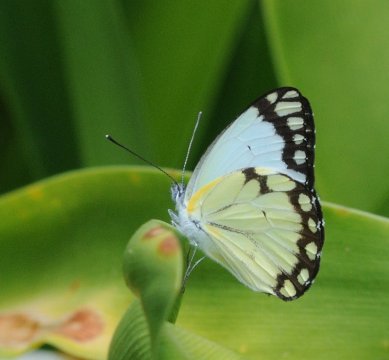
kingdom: Animalia
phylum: Arthropoda
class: Insecta
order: Lepidoptera
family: Pieridae
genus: Belenois
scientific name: Belenois creona
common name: African Caper
